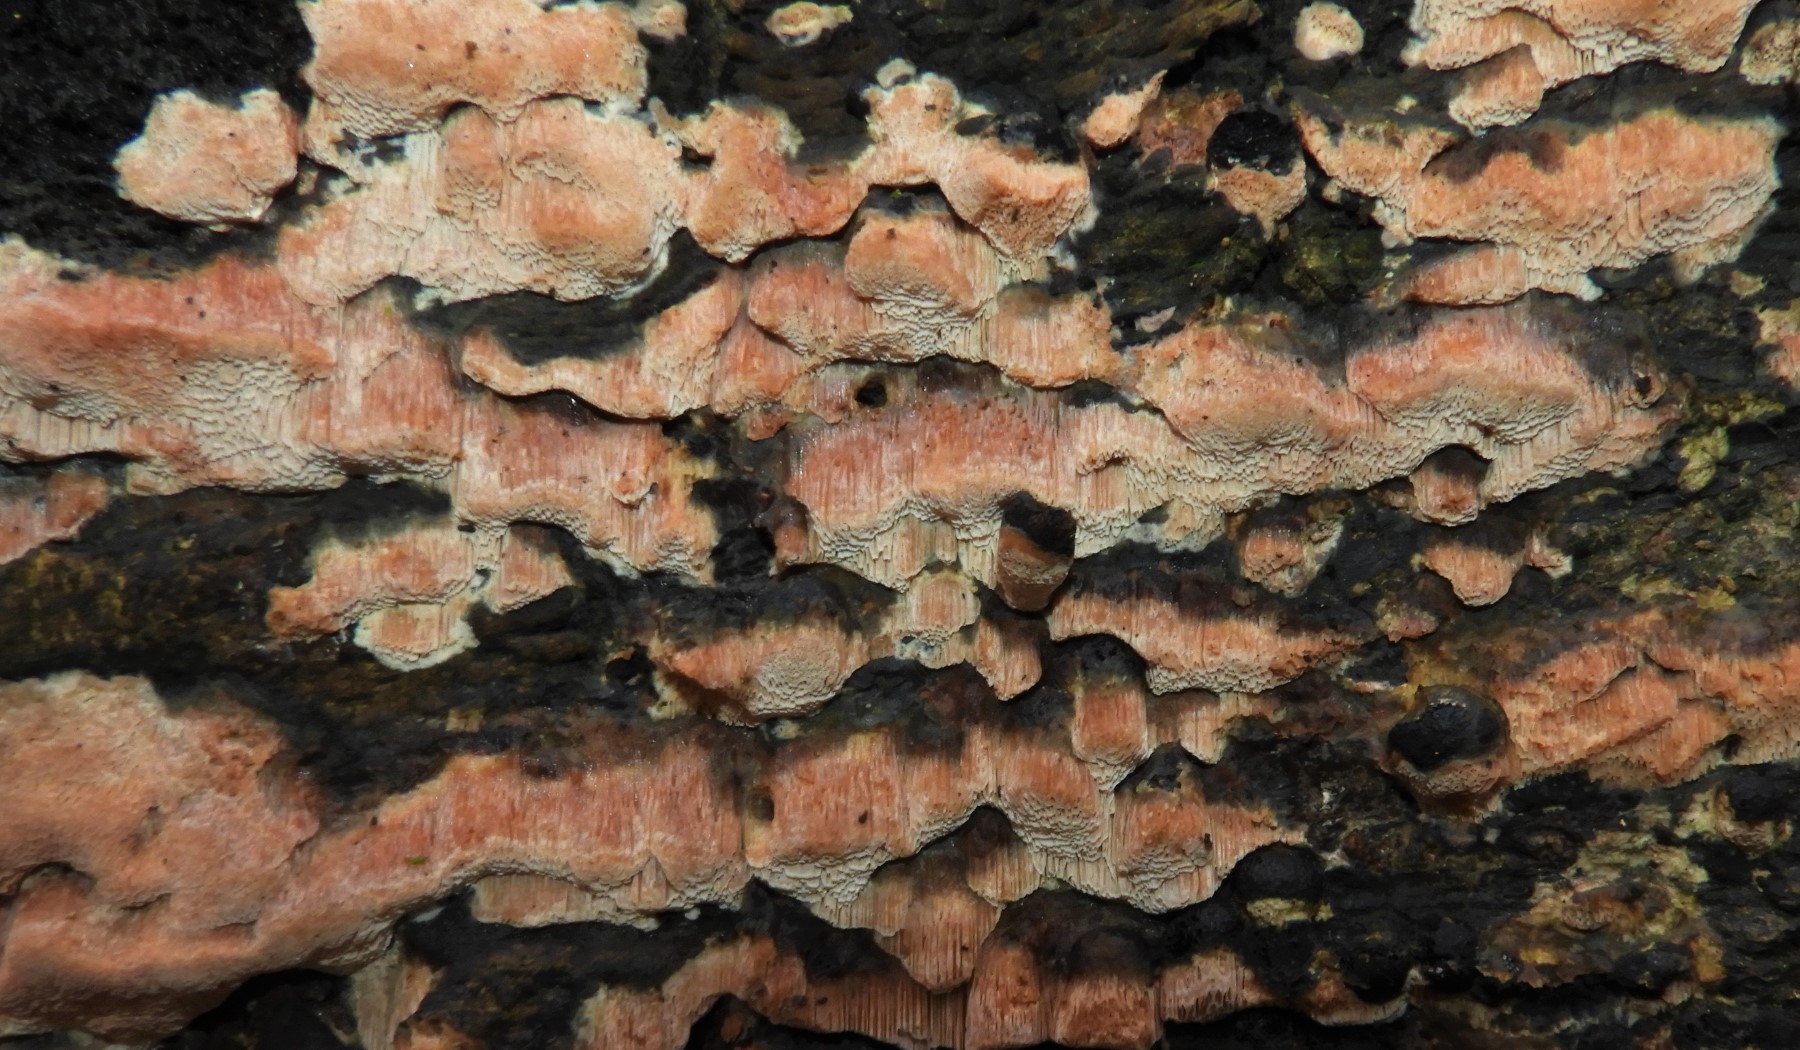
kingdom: Fungi
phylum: Basidiomycota
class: Agaricomycetes
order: Polyporales
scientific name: Polyporales
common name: poresvampordenen
